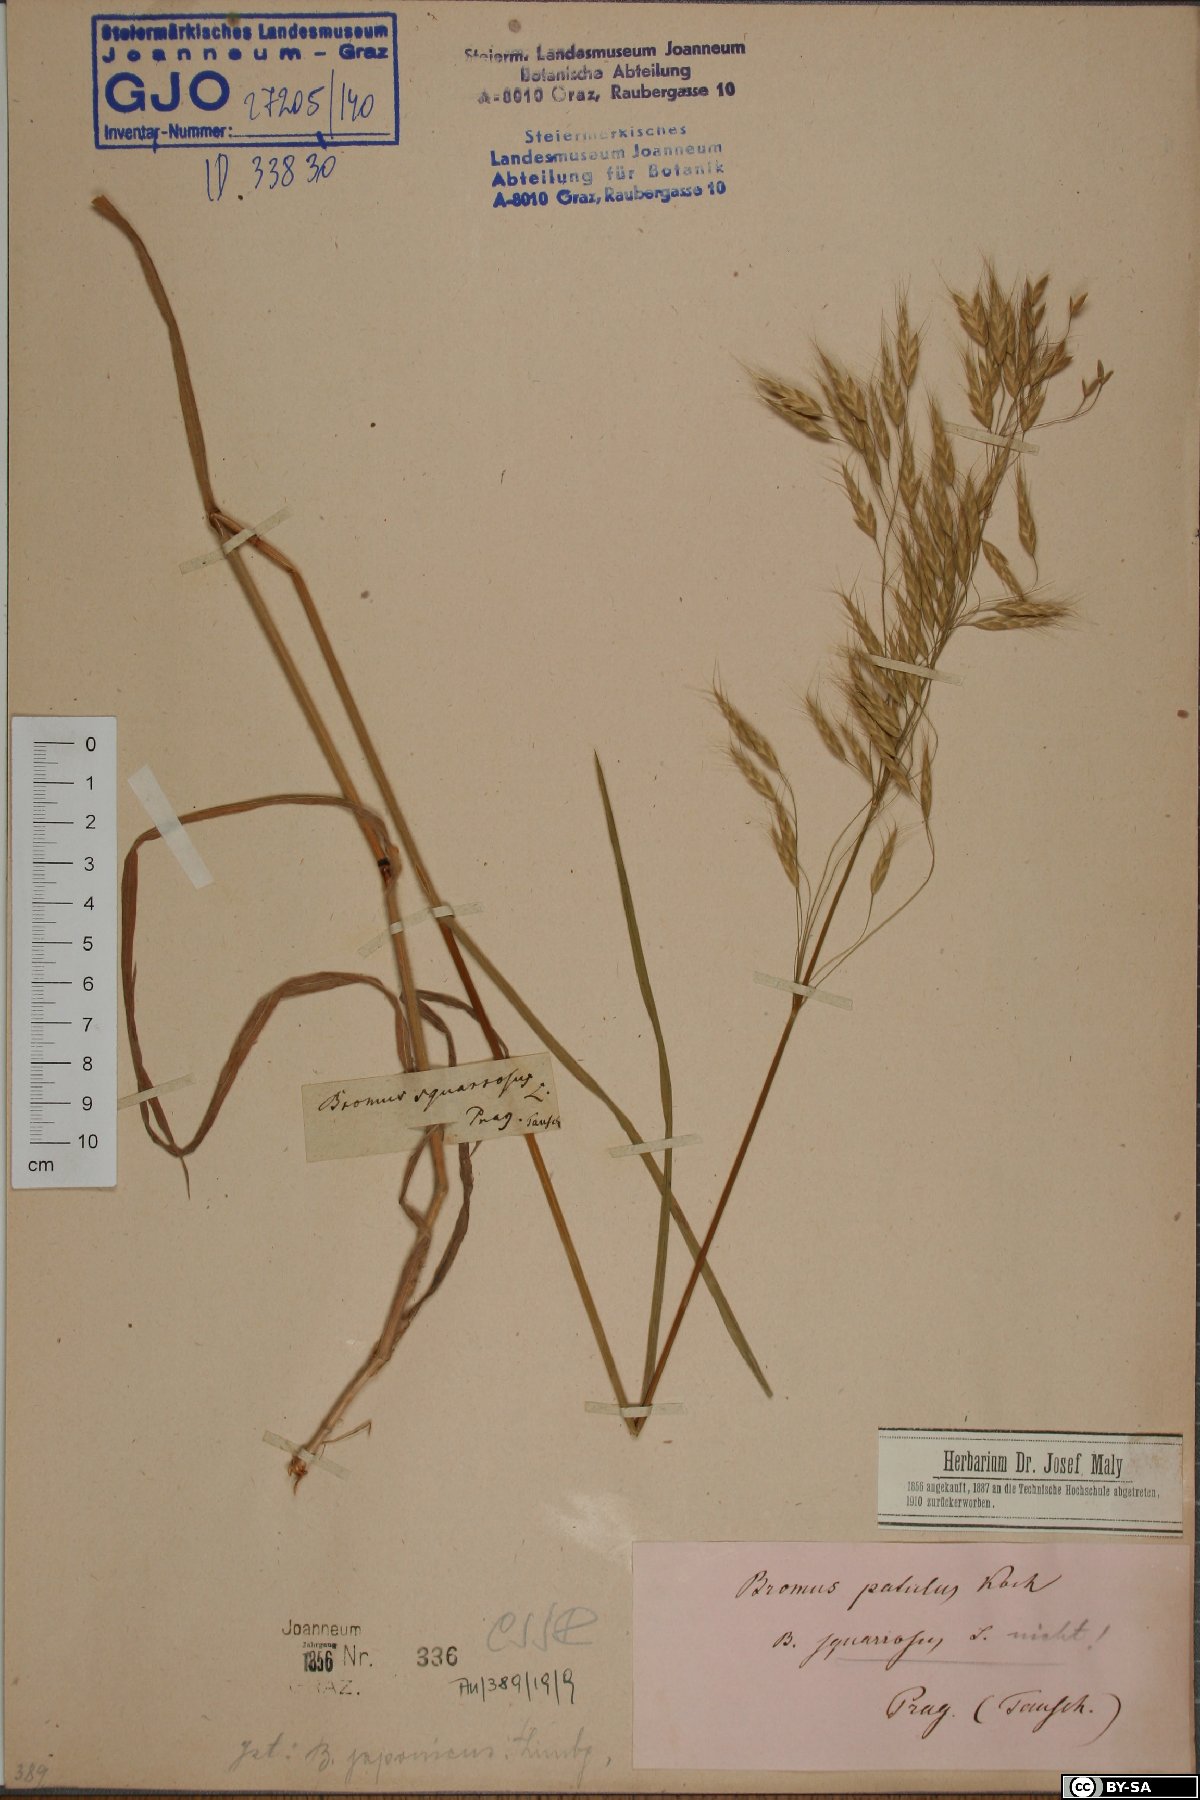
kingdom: Plantae
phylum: Tracheophyta
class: Liliopsida
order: Poales
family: Poaceae
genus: Bromus
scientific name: Bromus japonicus
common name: Japanese brome
